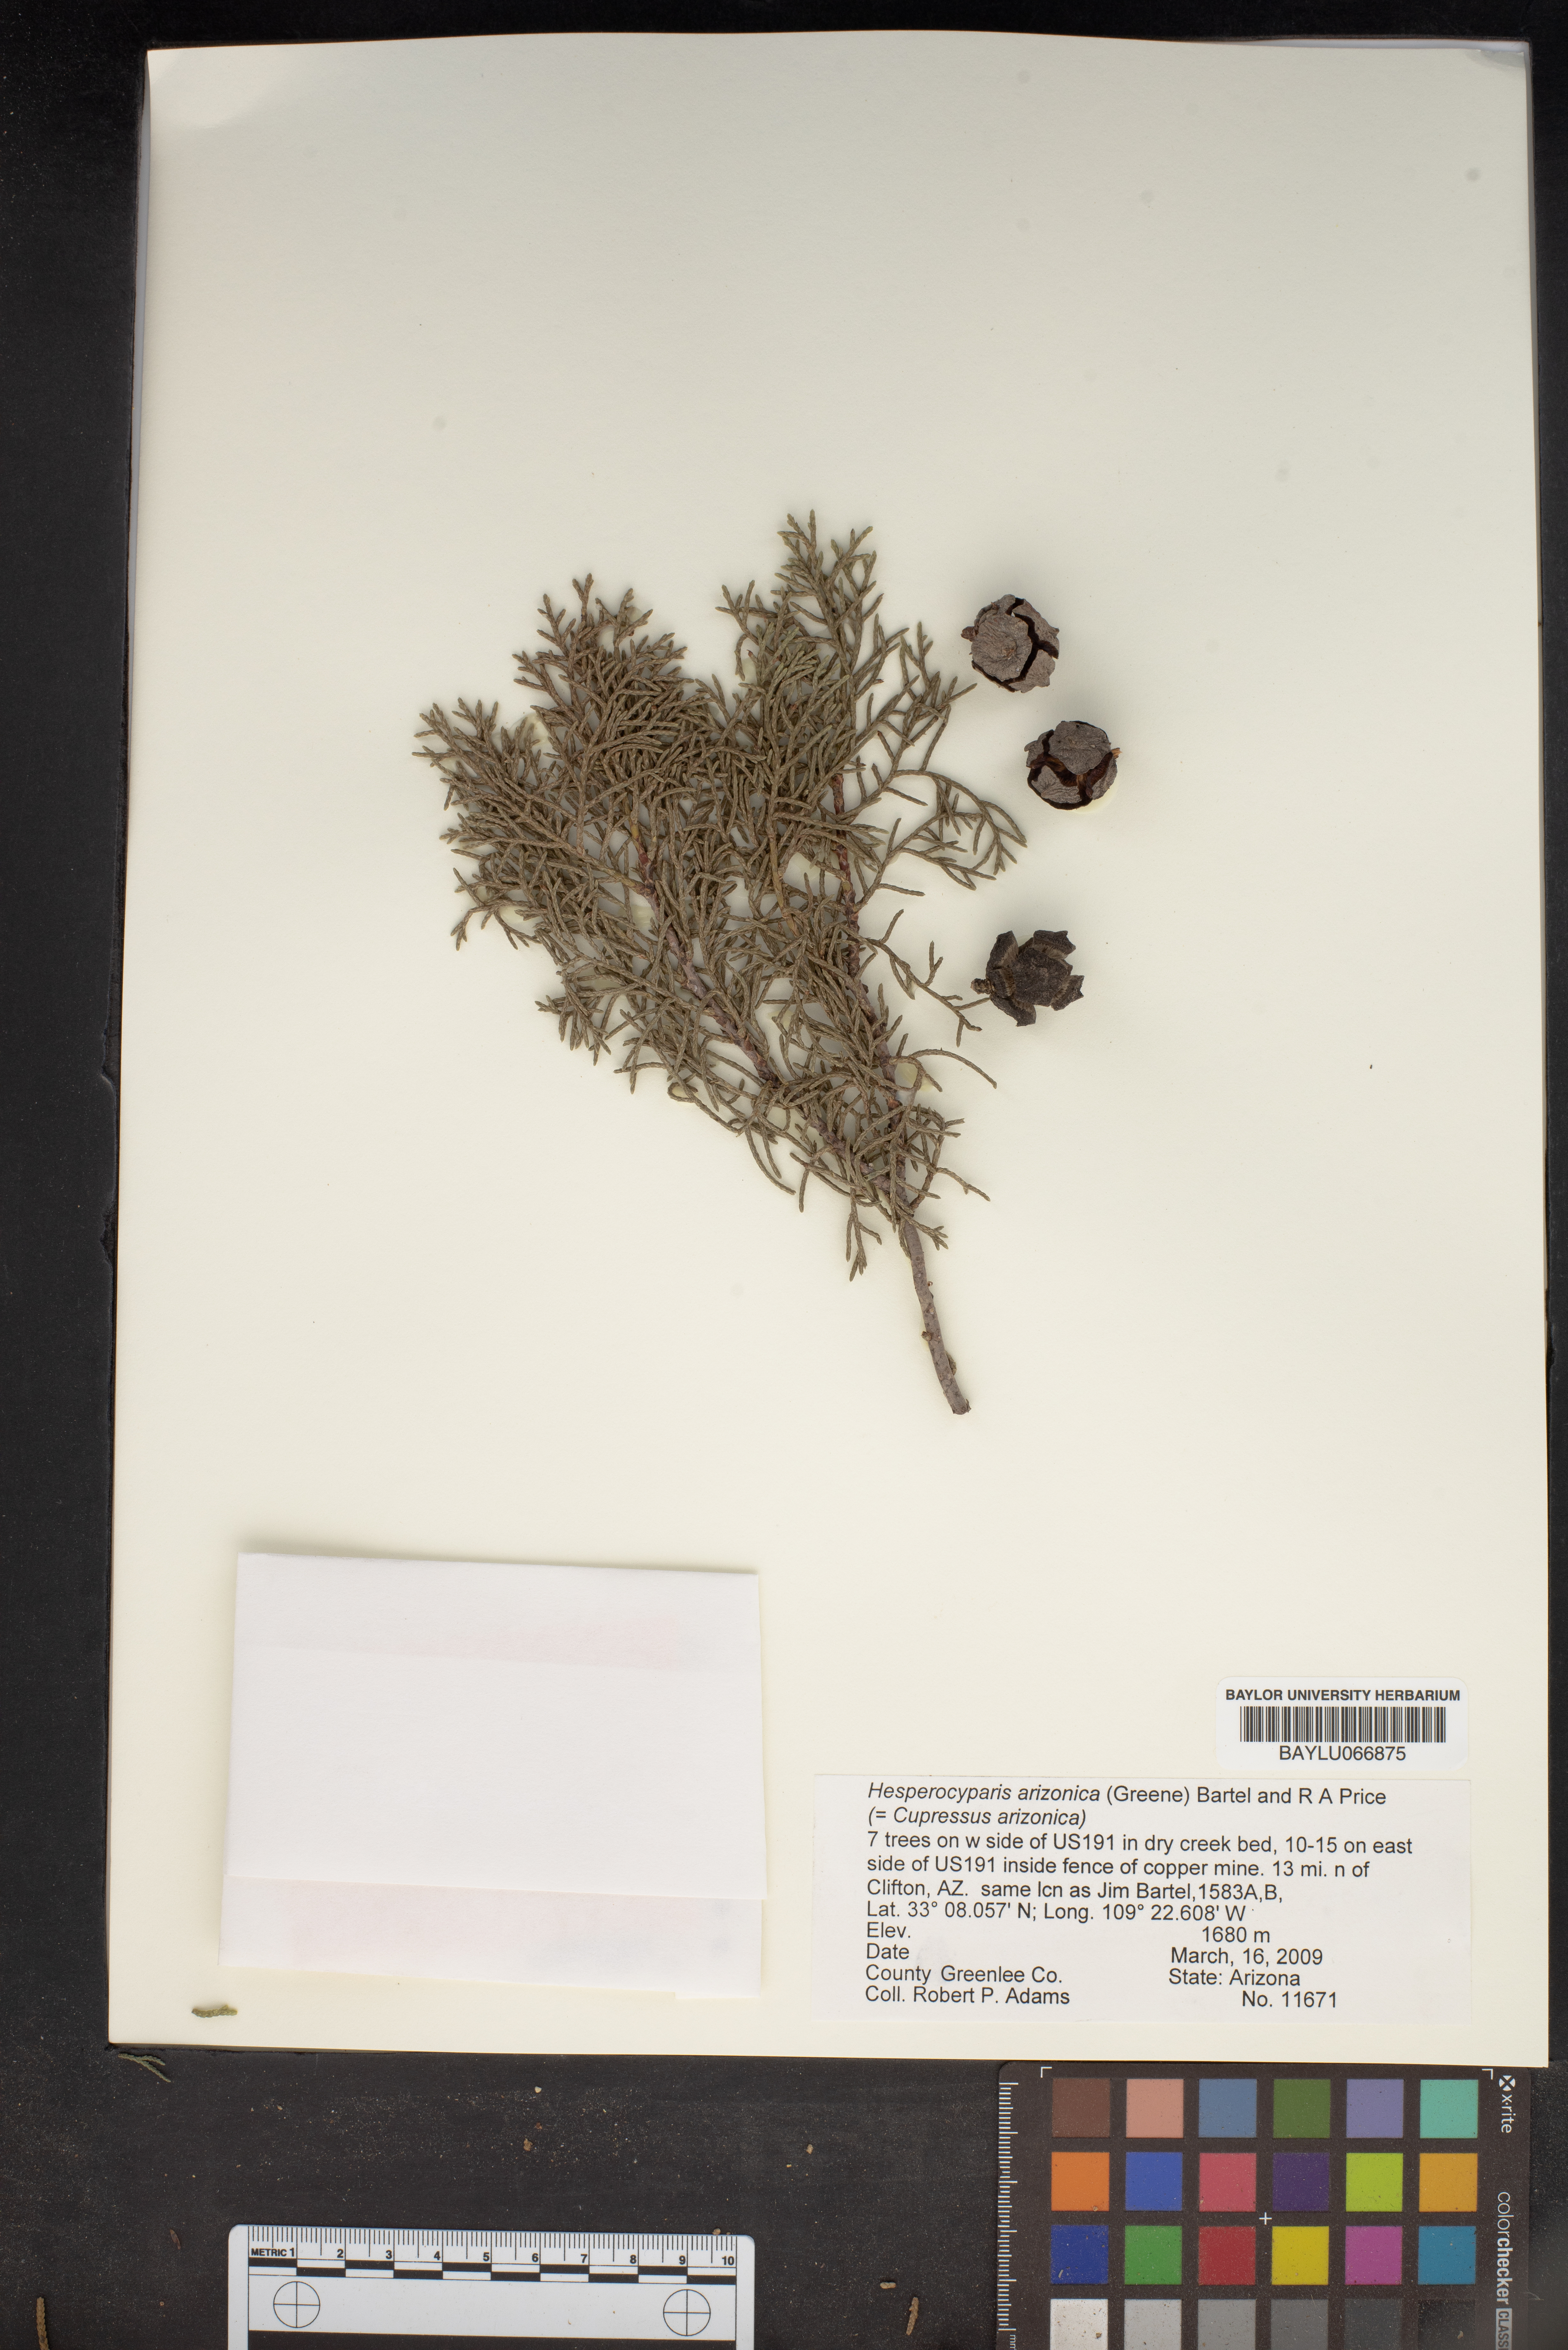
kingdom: Plantae
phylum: Tracheophyta
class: Pinopsida
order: Pinales
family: Cupressaceae
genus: Cupressus
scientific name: Cupressus arizonica
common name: Arizona cypress
